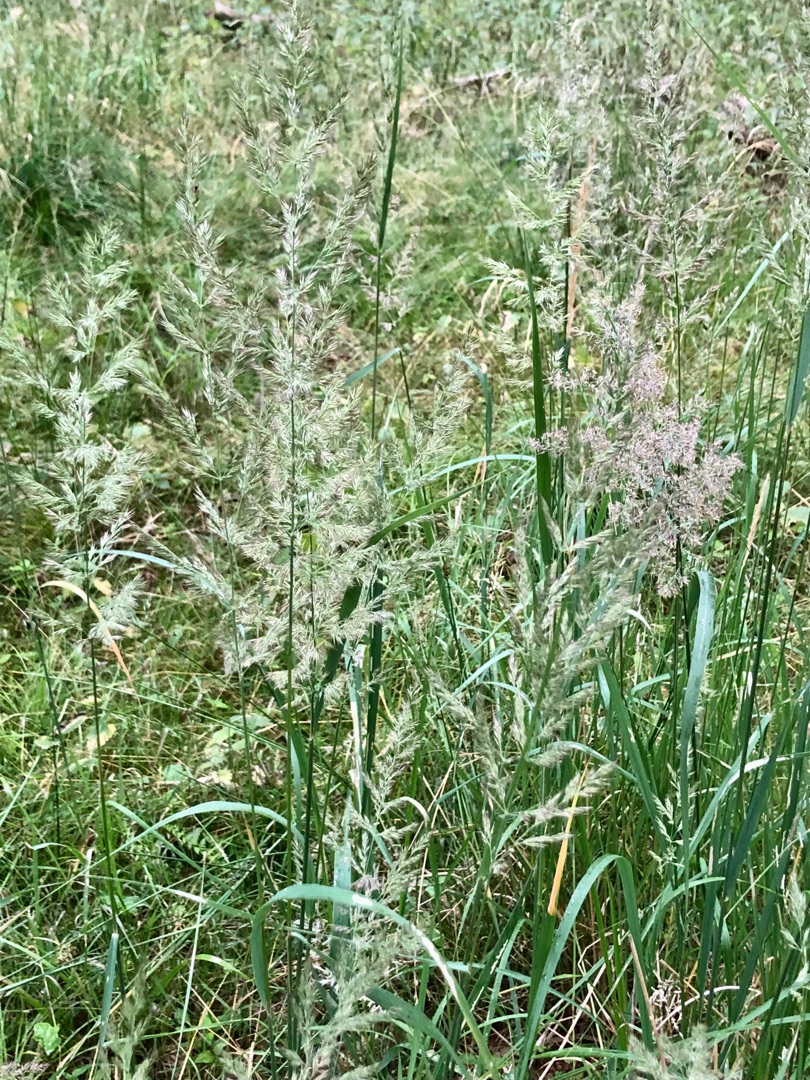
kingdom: Plantae
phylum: Tracheophyta
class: Liliopsida
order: Poales
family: Poaceae
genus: Calamagrostis
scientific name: Calamagrostis
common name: Rørhveneslægten
